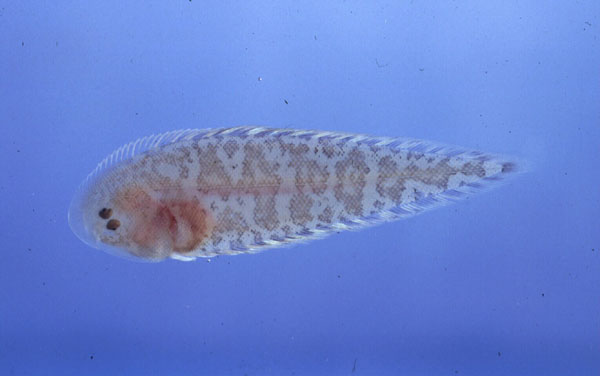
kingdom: Animalia
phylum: Chordata
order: Pleuronectiformes
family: Cynoglossidae
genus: Cynoglossus
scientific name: Cynoglossus acaudatus
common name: Natal tounge-fish
